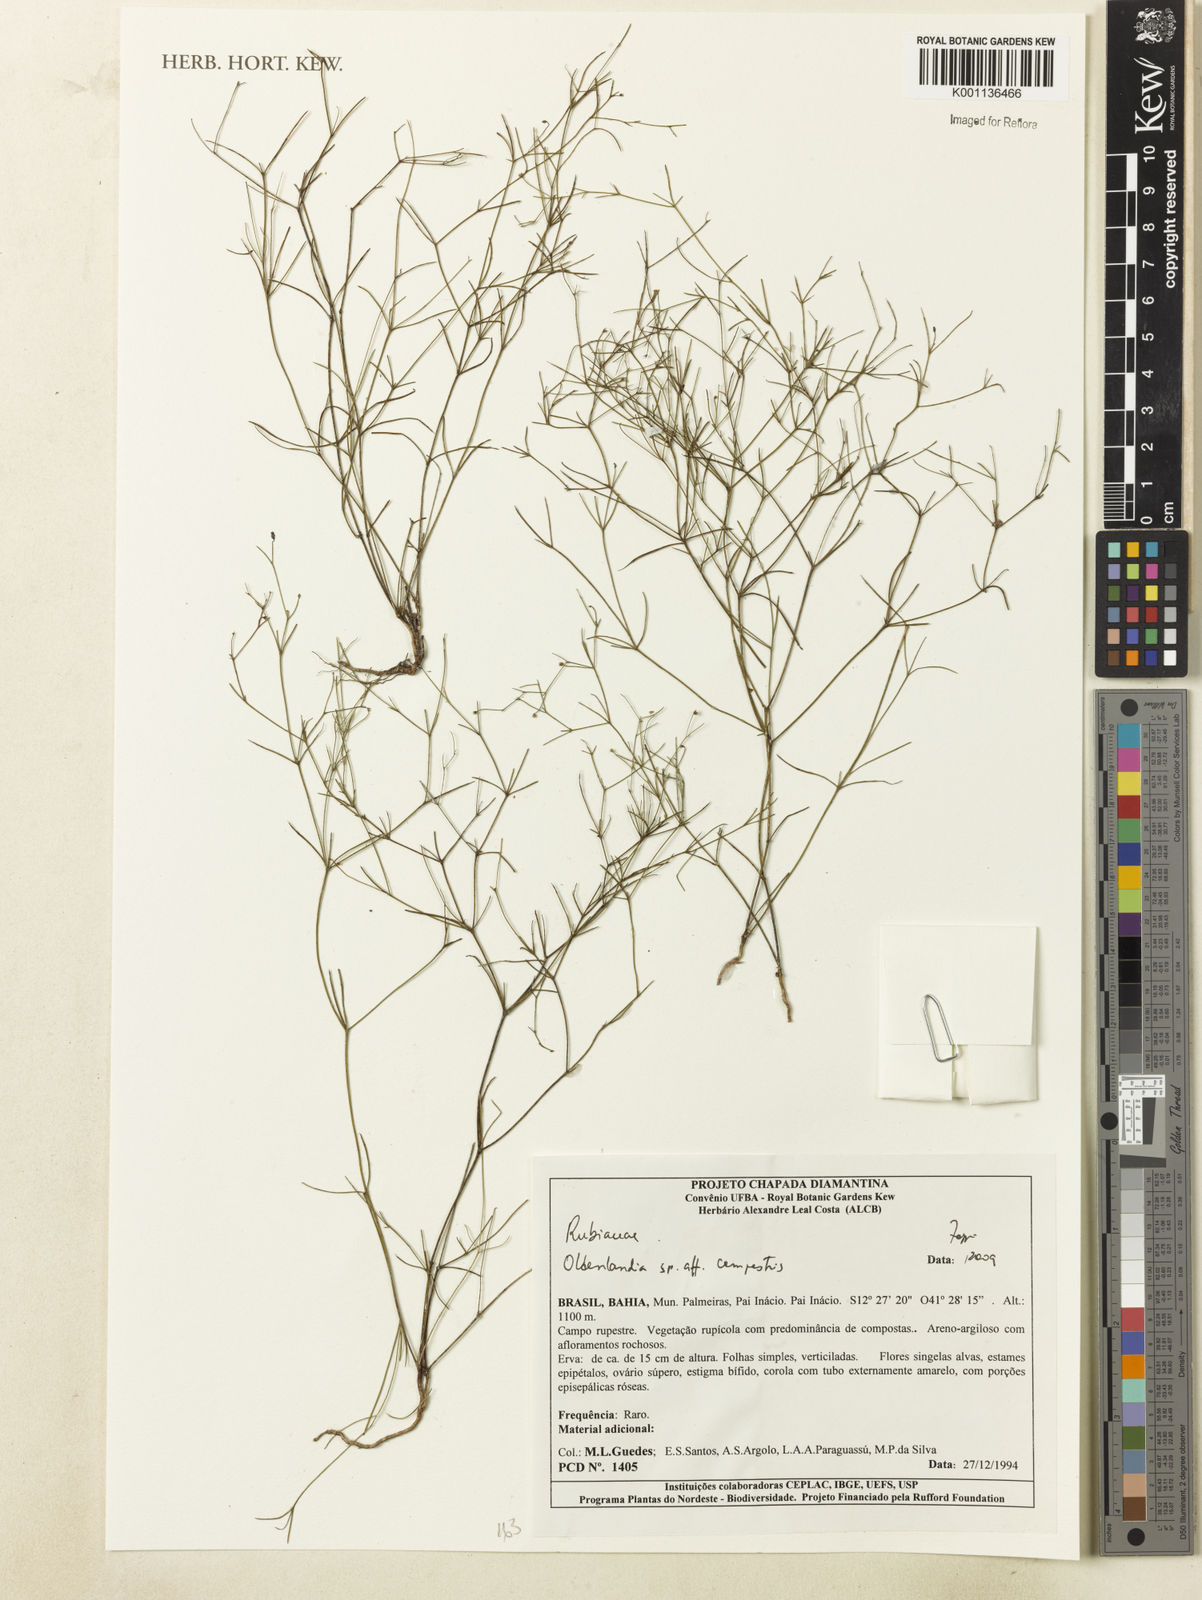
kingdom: Plantae
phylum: Tracheophyta
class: Magnoliopsida
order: Gentianales
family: Rubiaceae
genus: Oldenlandia
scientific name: Oldenlandia
